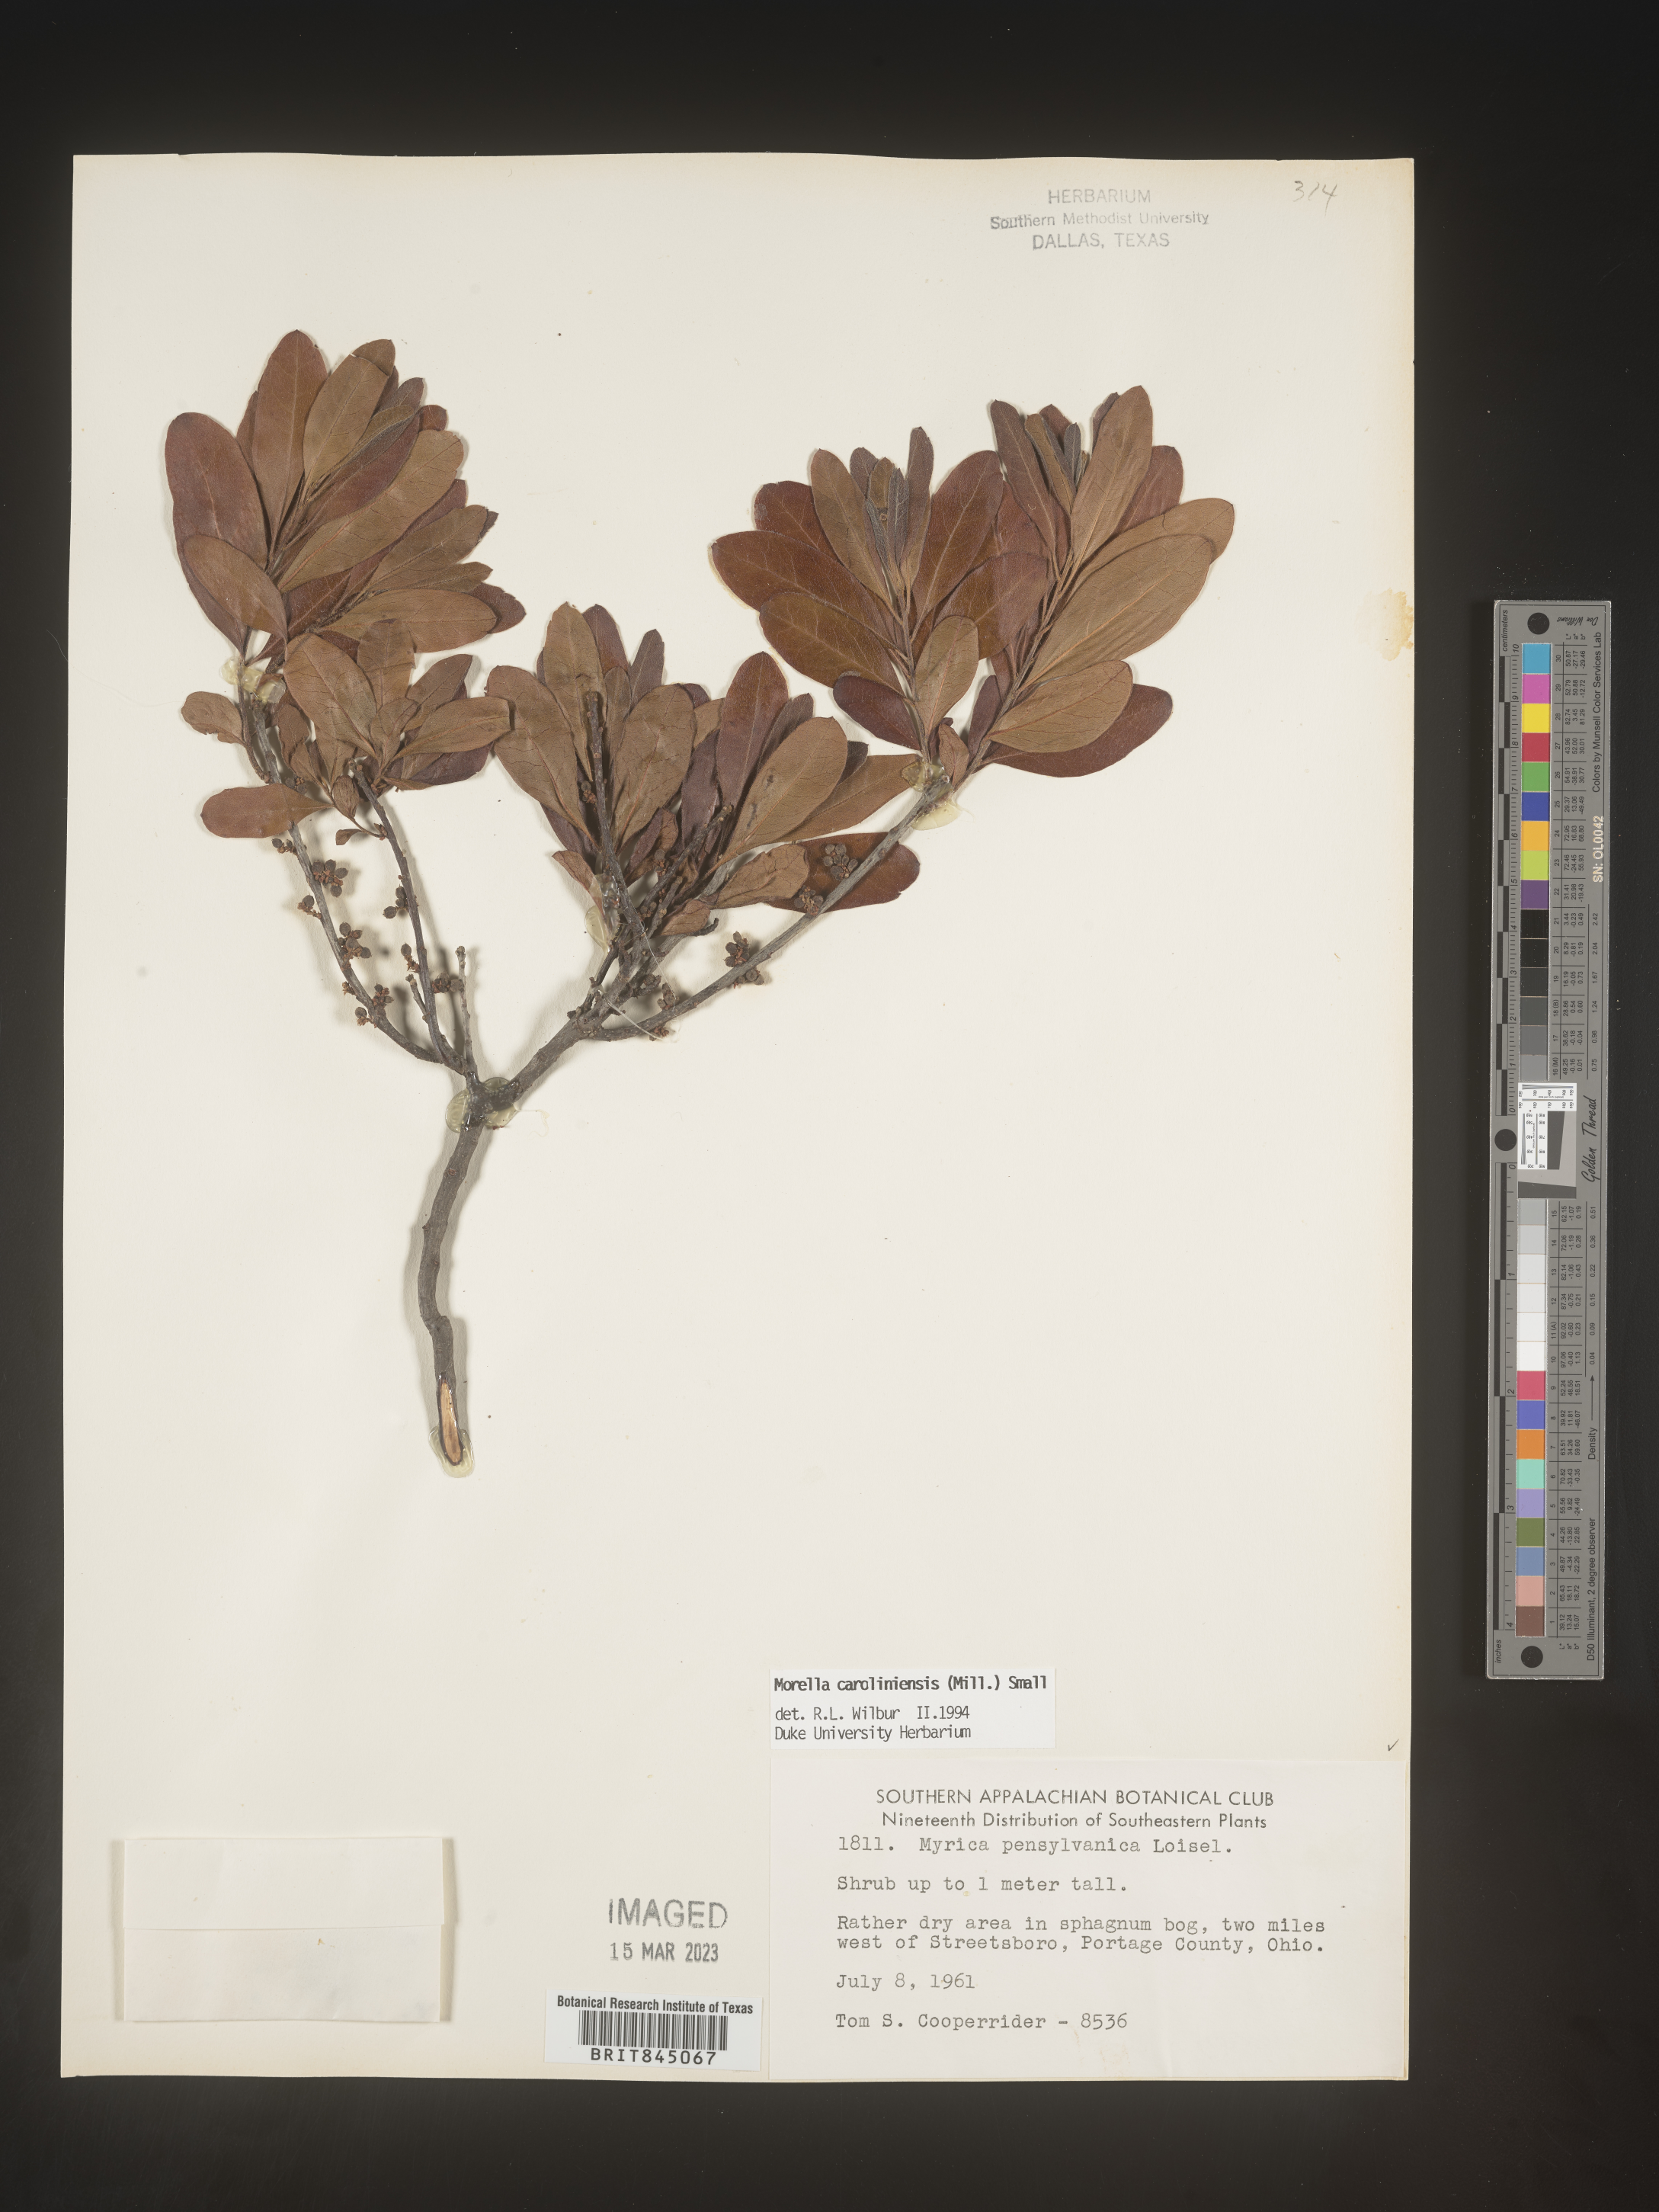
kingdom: Plantae
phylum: Tracheophyta
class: Magnoliopsida
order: Fagales
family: Myricaceae
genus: Morella
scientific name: Morella caroliniensis
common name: Evergreen bayberry
